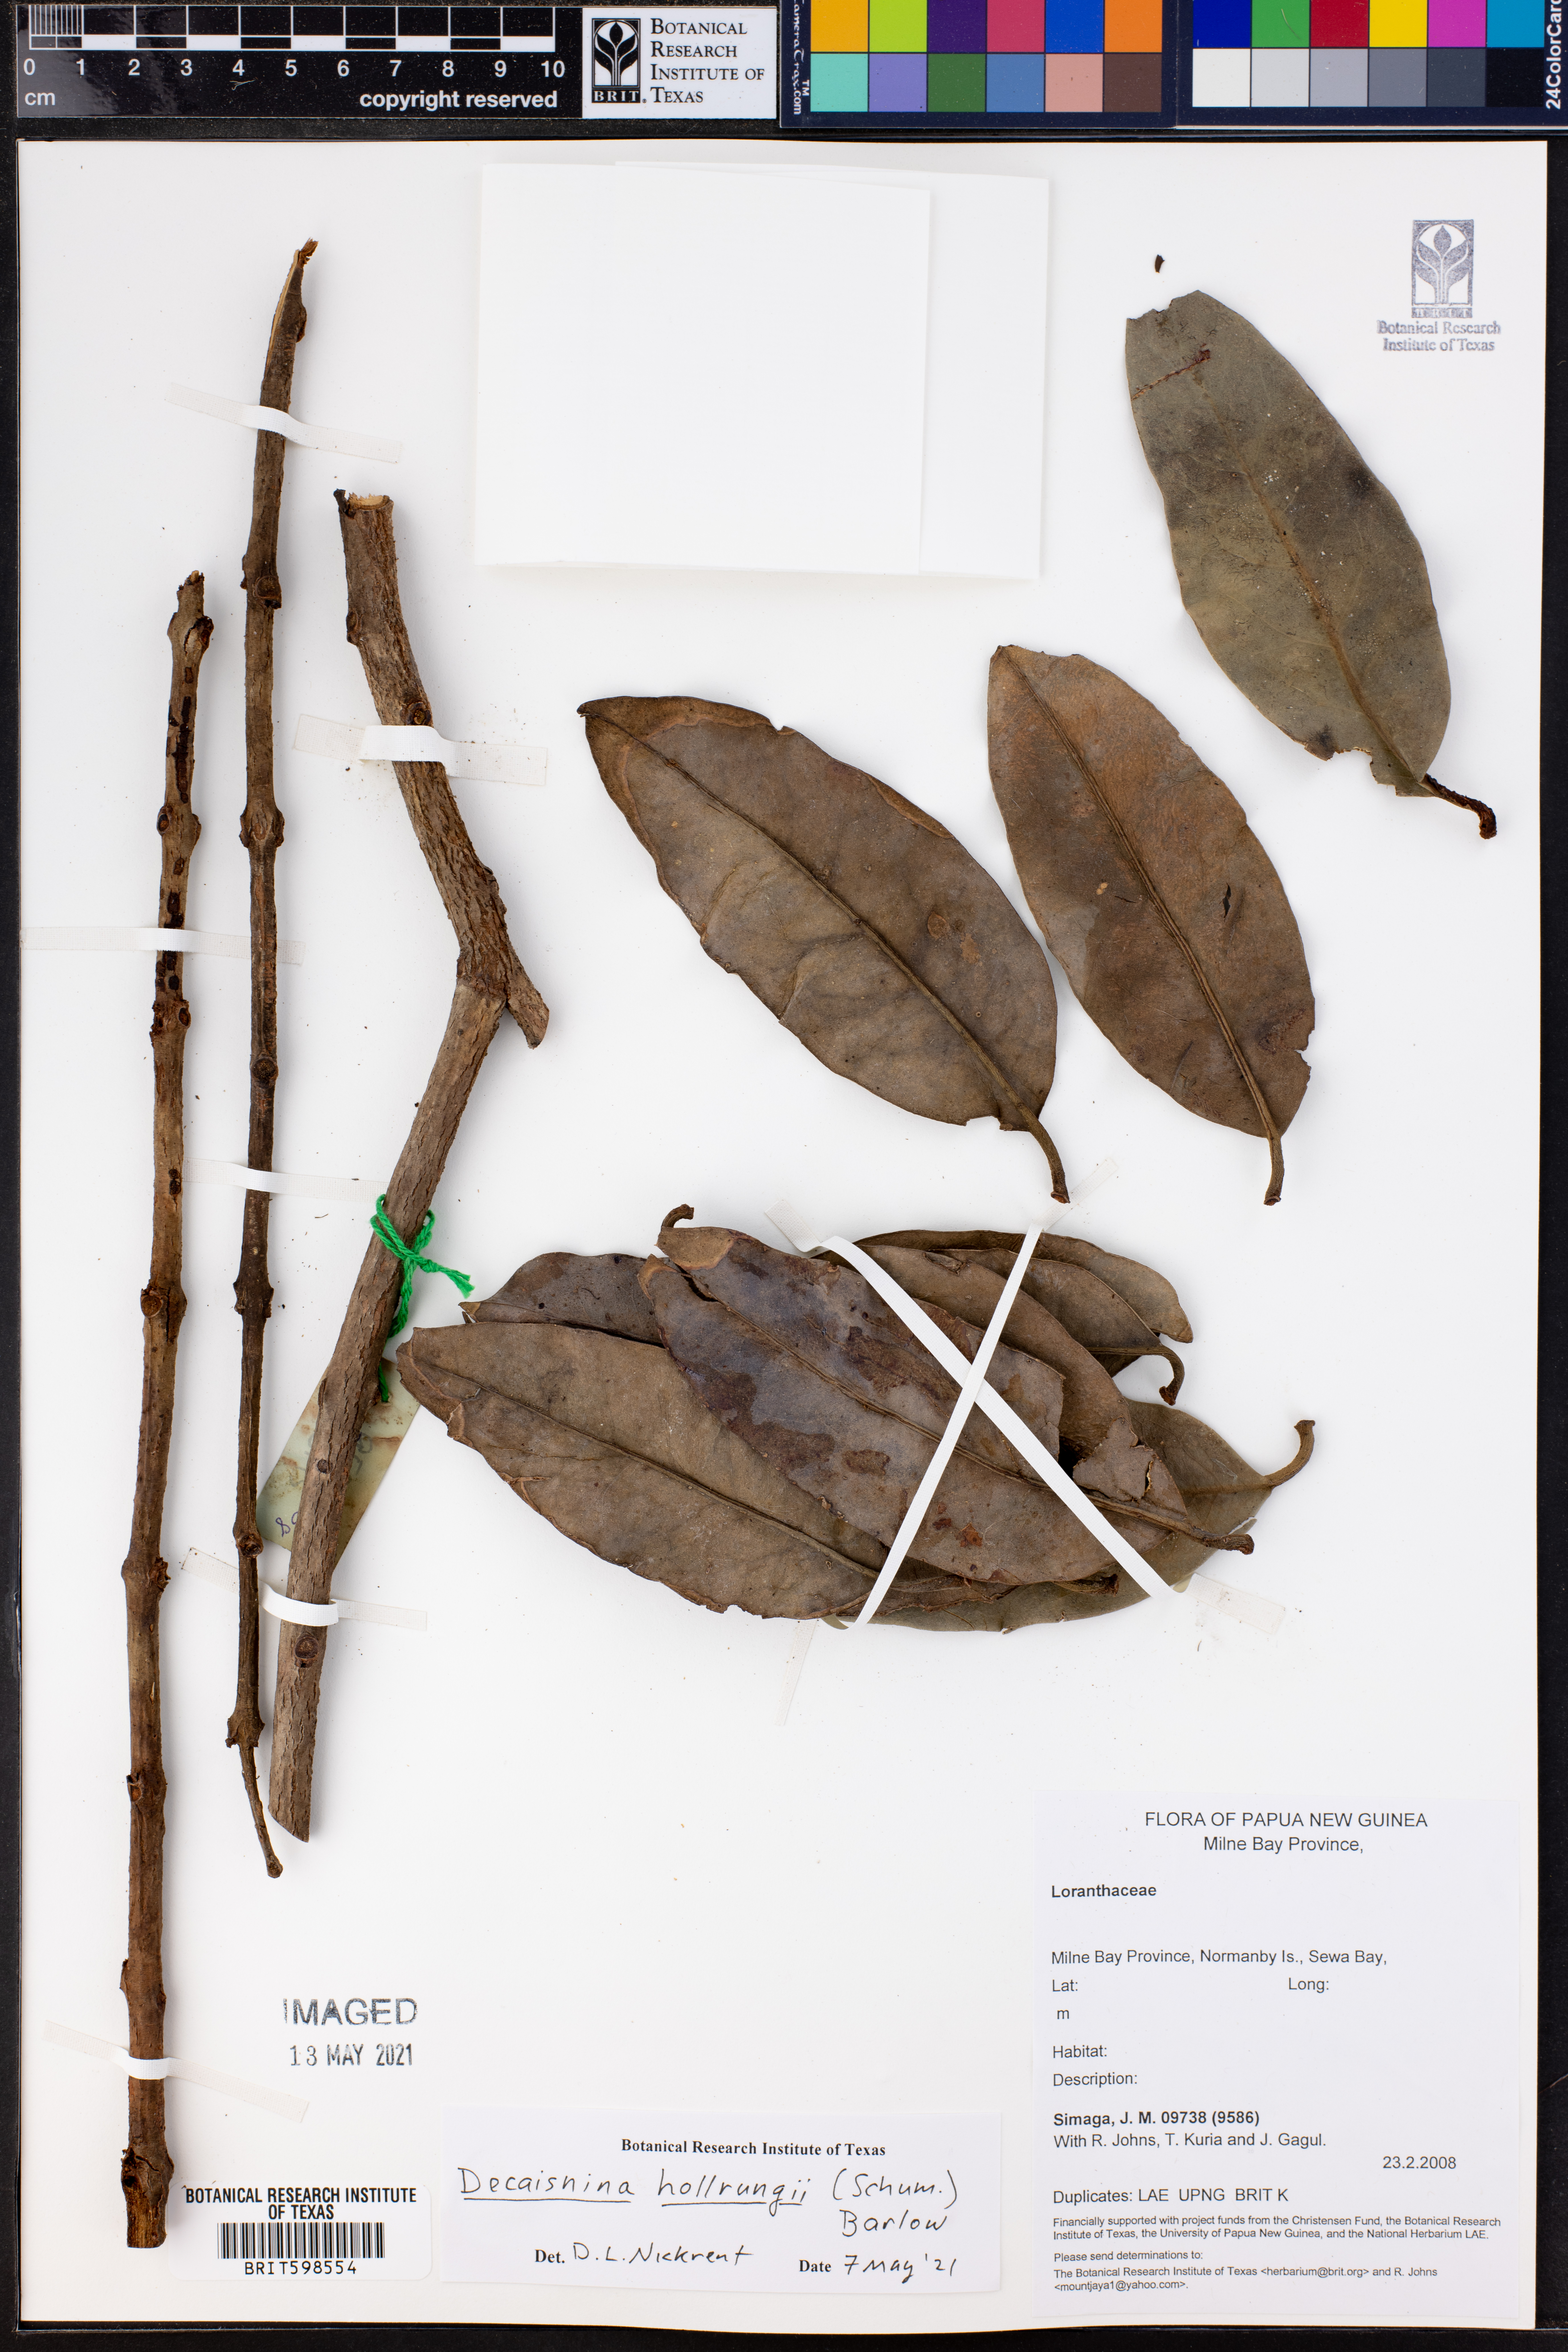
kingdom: Plantae
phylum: Tracheophyta
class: Magnoliopsida
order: Santalales
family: Loranthaceae
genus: Decaisnina
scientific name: Decaisnina hollrungii
